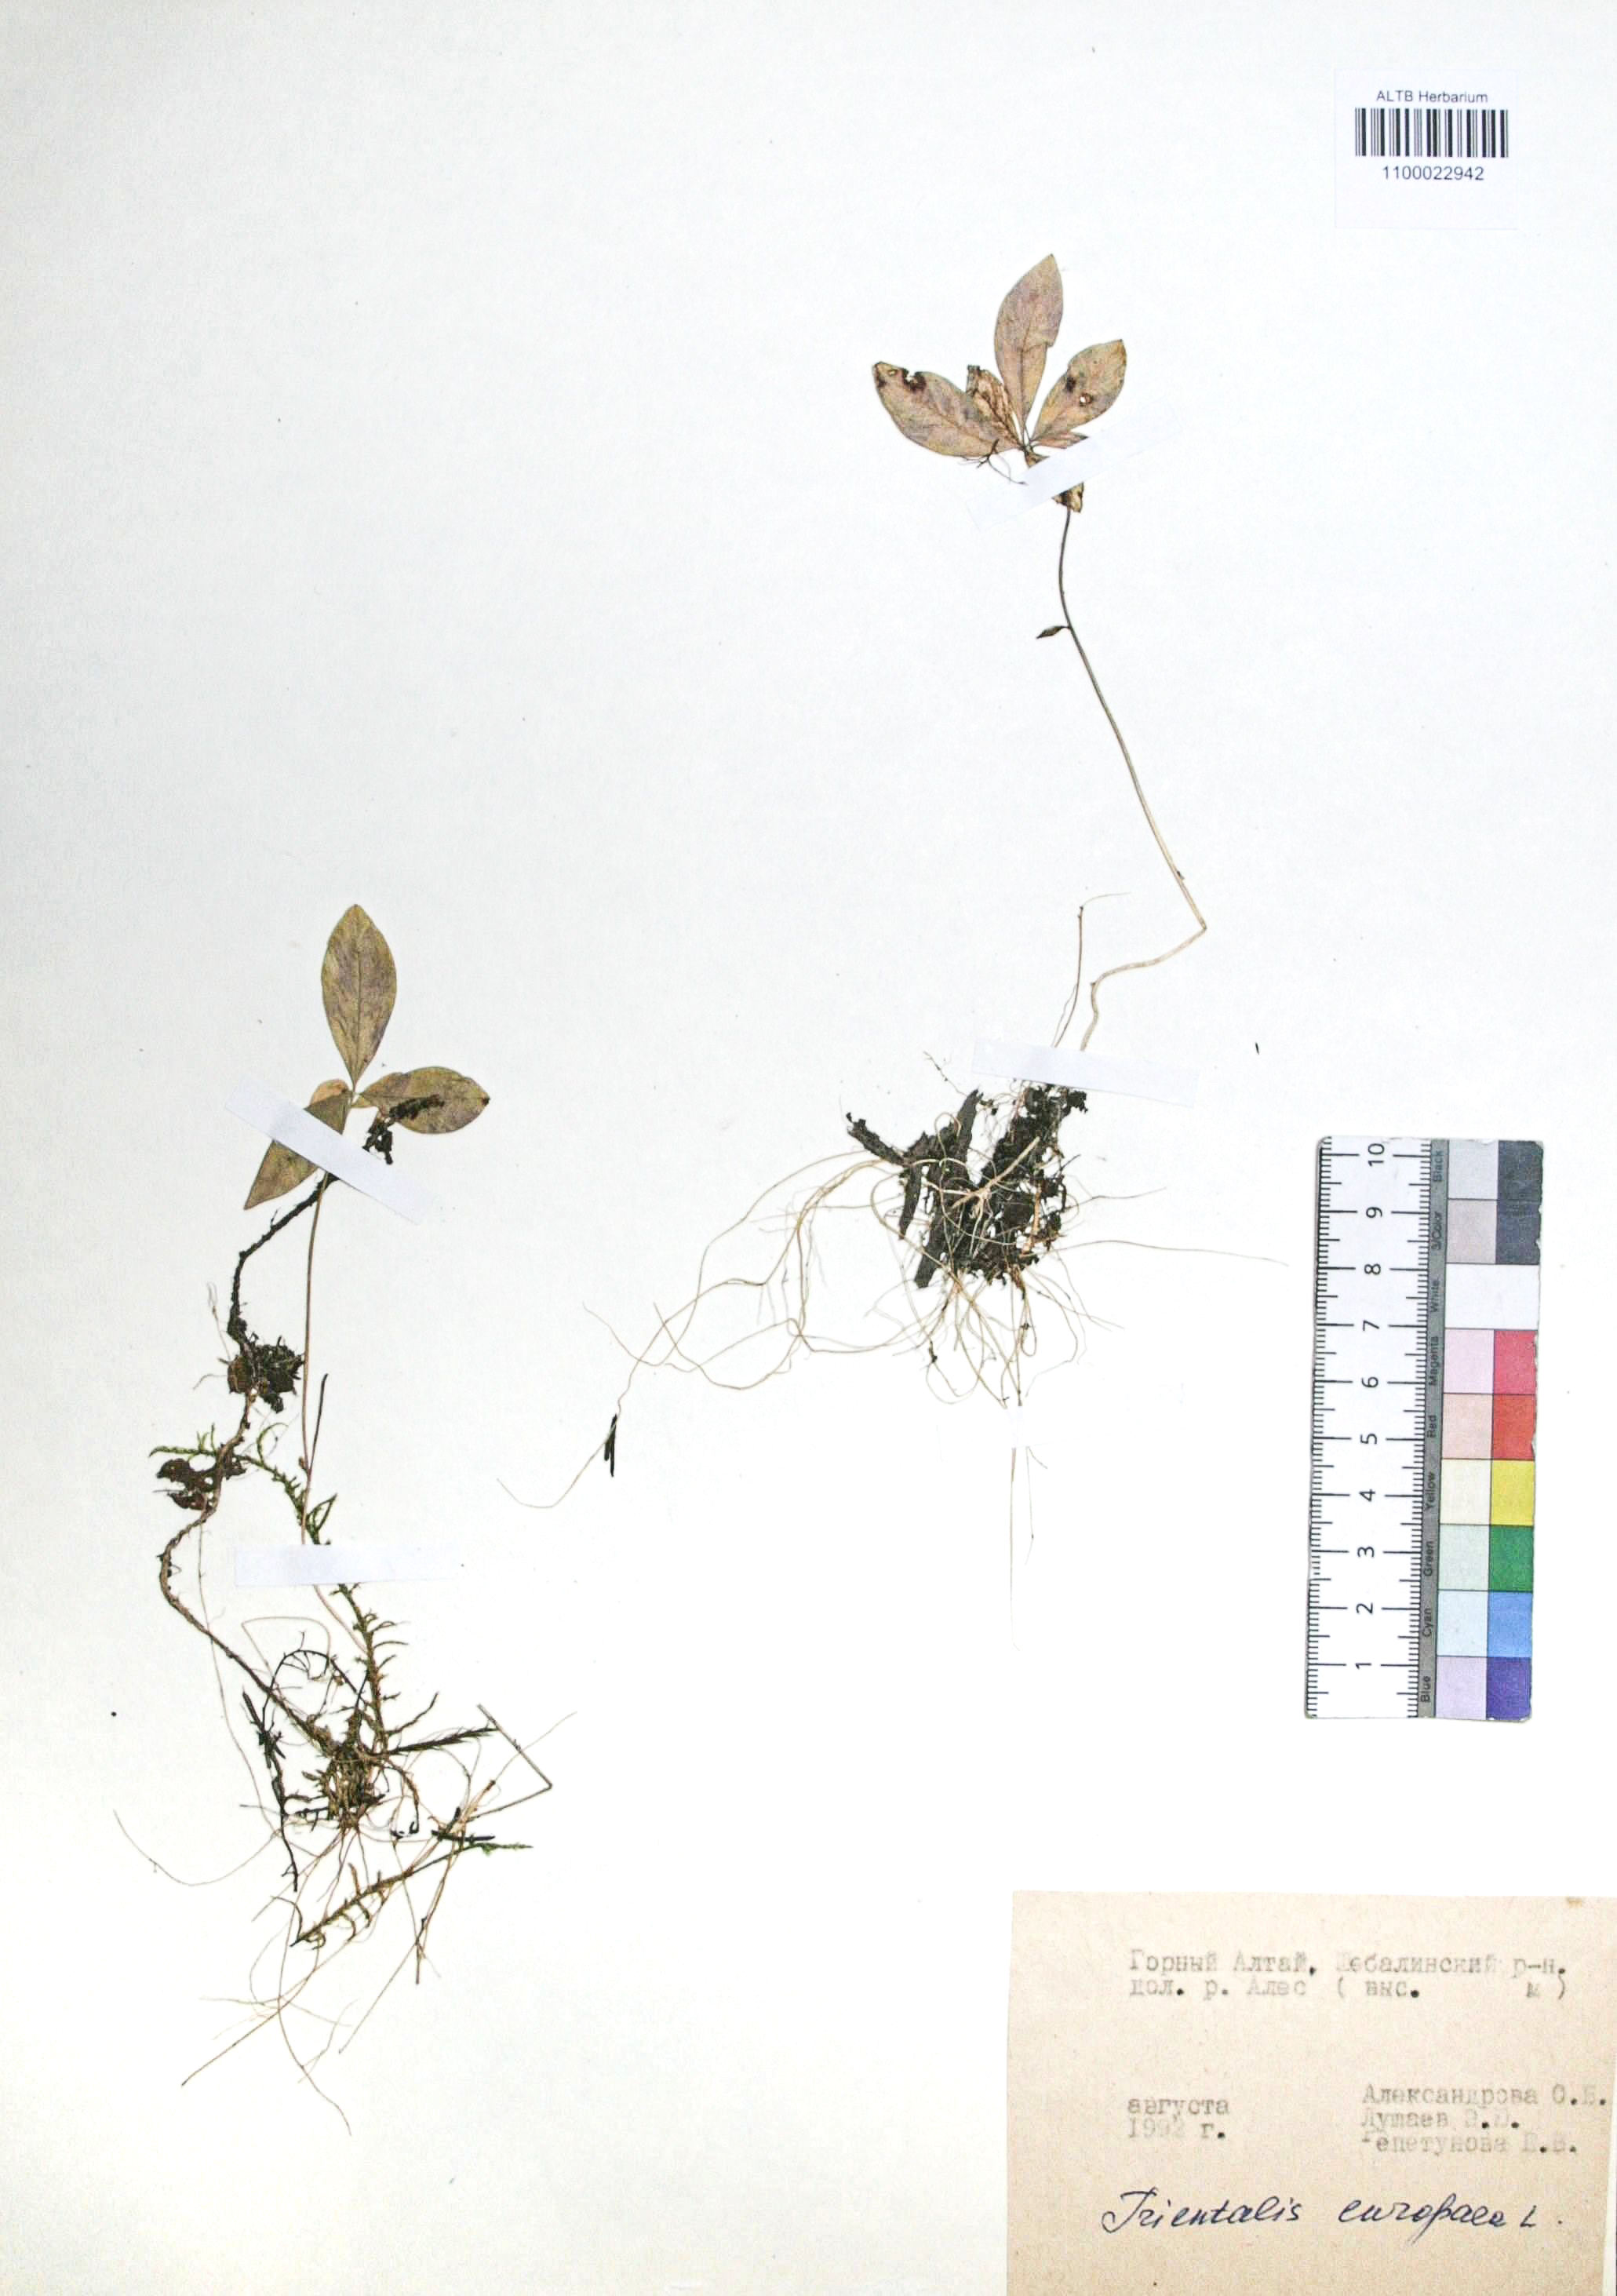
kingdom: Plantae
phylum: Tracheophyta
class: Magnoliopsida
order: Ericales
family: Primulaceae
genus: Lysimachia
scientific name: Lysimachia europaea
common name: Arctic starflower
